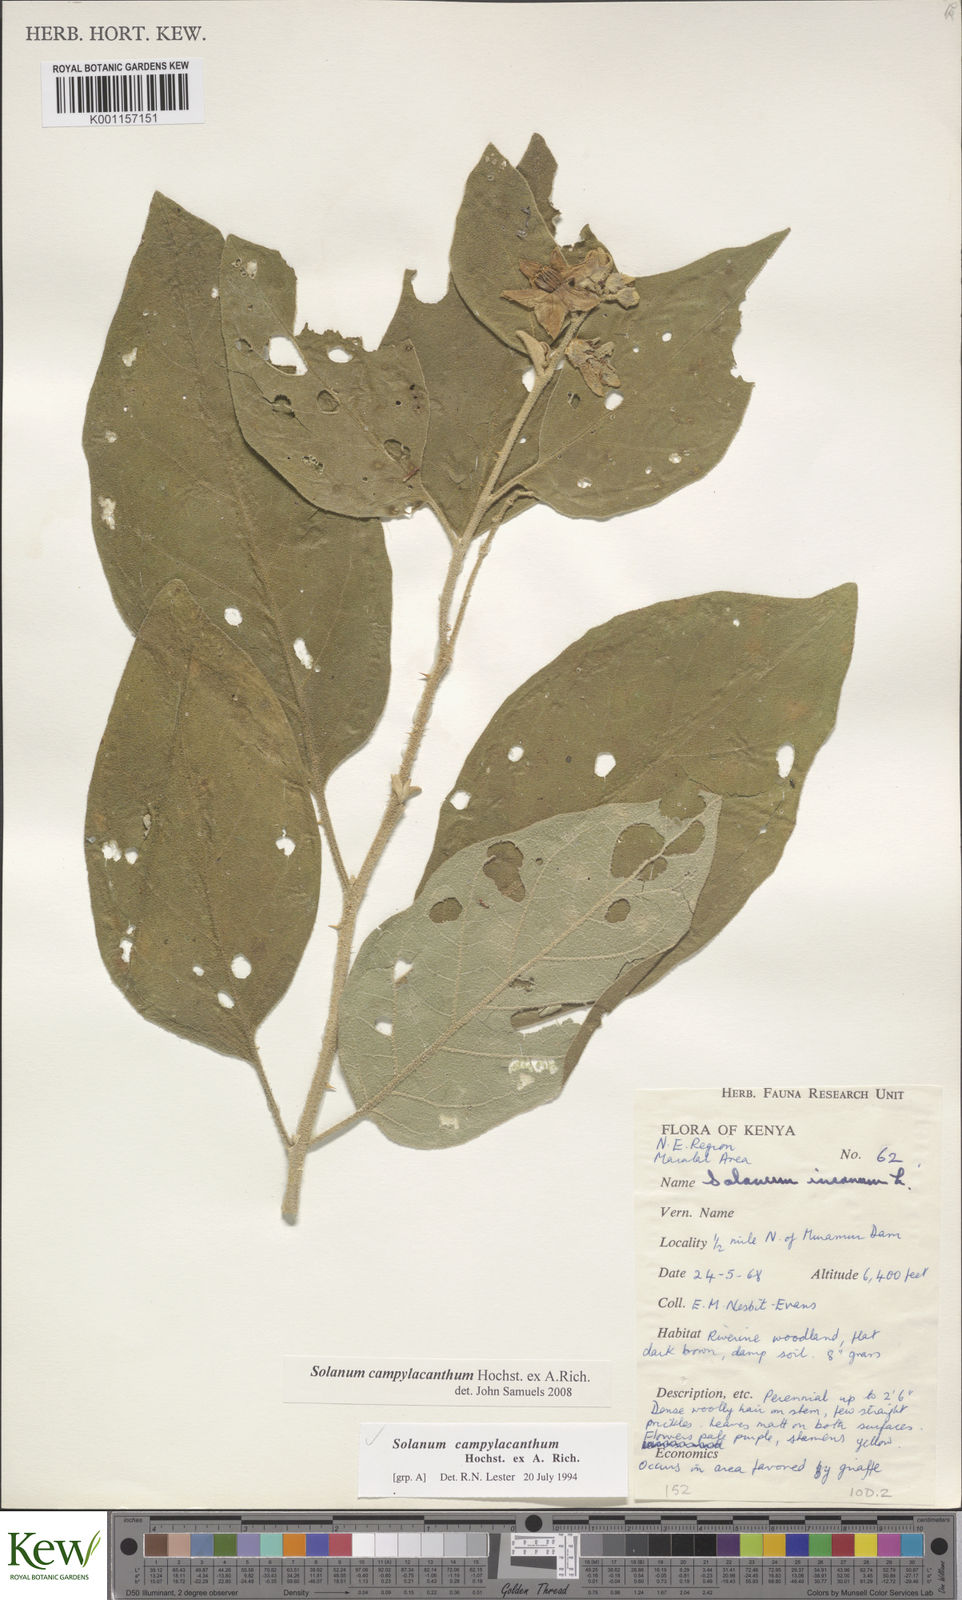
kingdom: Plantae
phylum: Tracheophyta
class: Magnoliopsida
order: Solanales
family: Solanaceae
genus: Solanum
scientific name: Solanum campylacanthum
